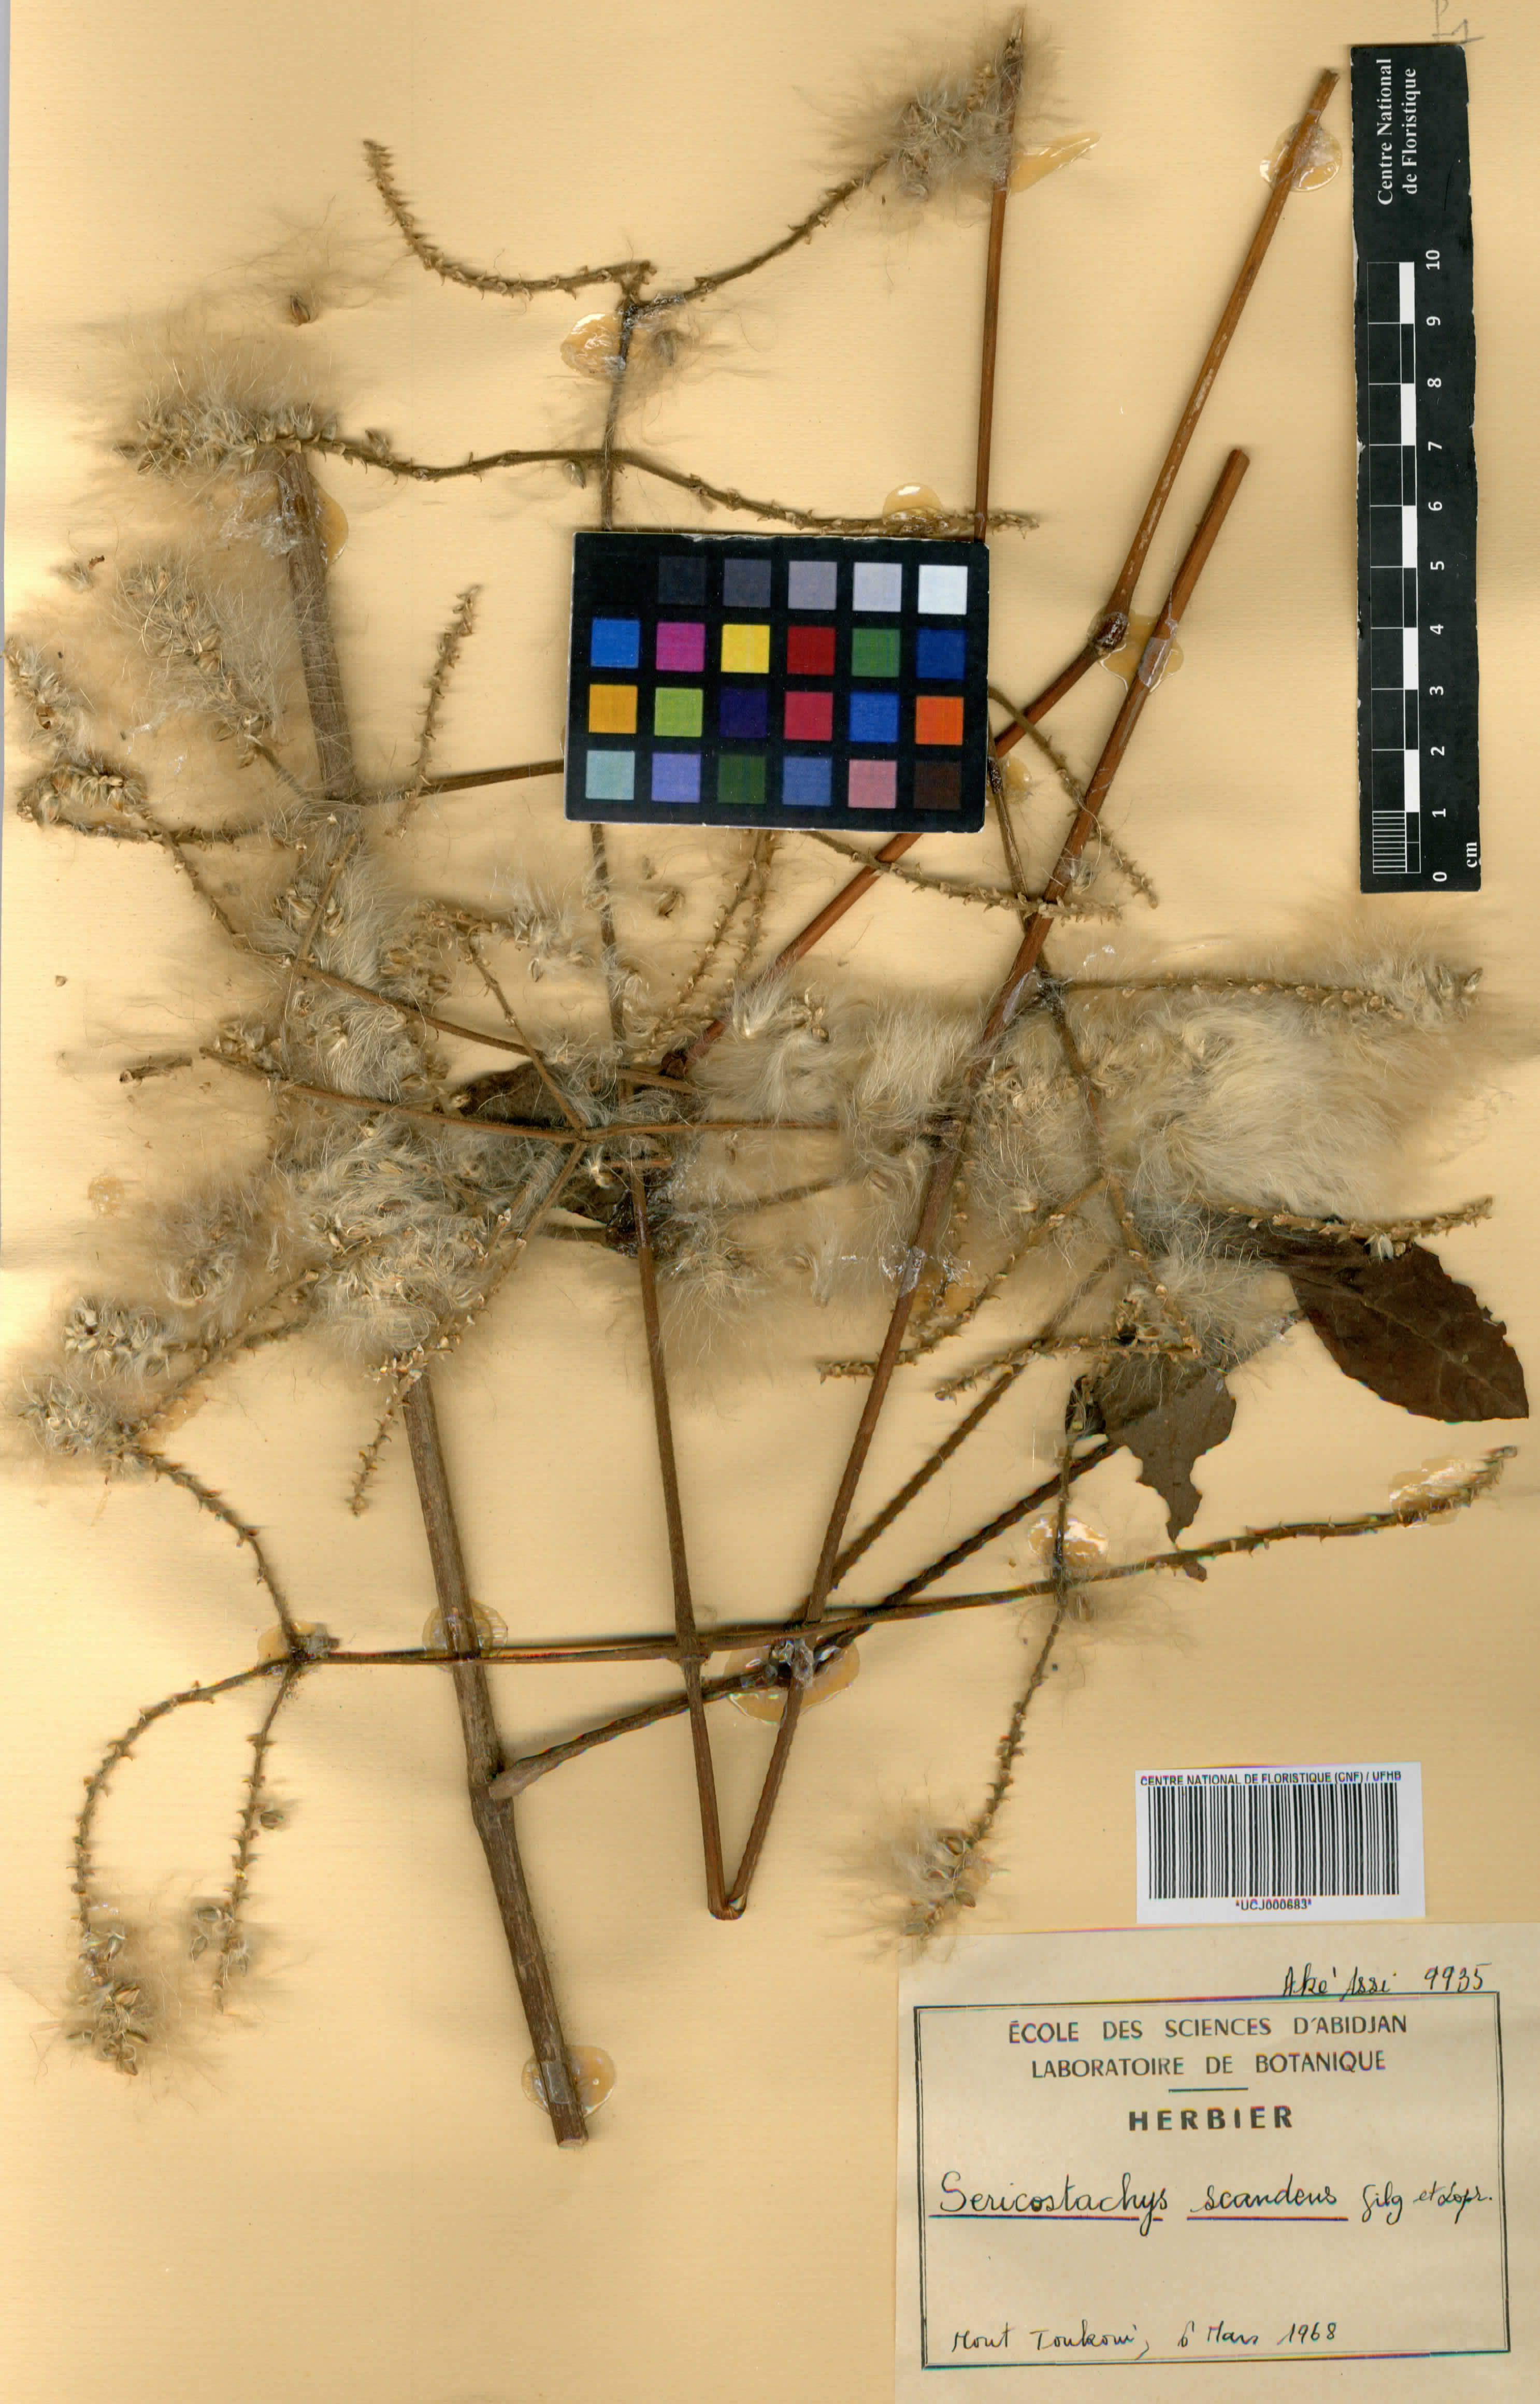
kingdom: Plantae
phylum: Tracheophyta
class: Magnoliopsida
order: Caryophyllales
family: Amaranthaceae
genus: Sericostachys
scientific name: Sericostachys scandens
